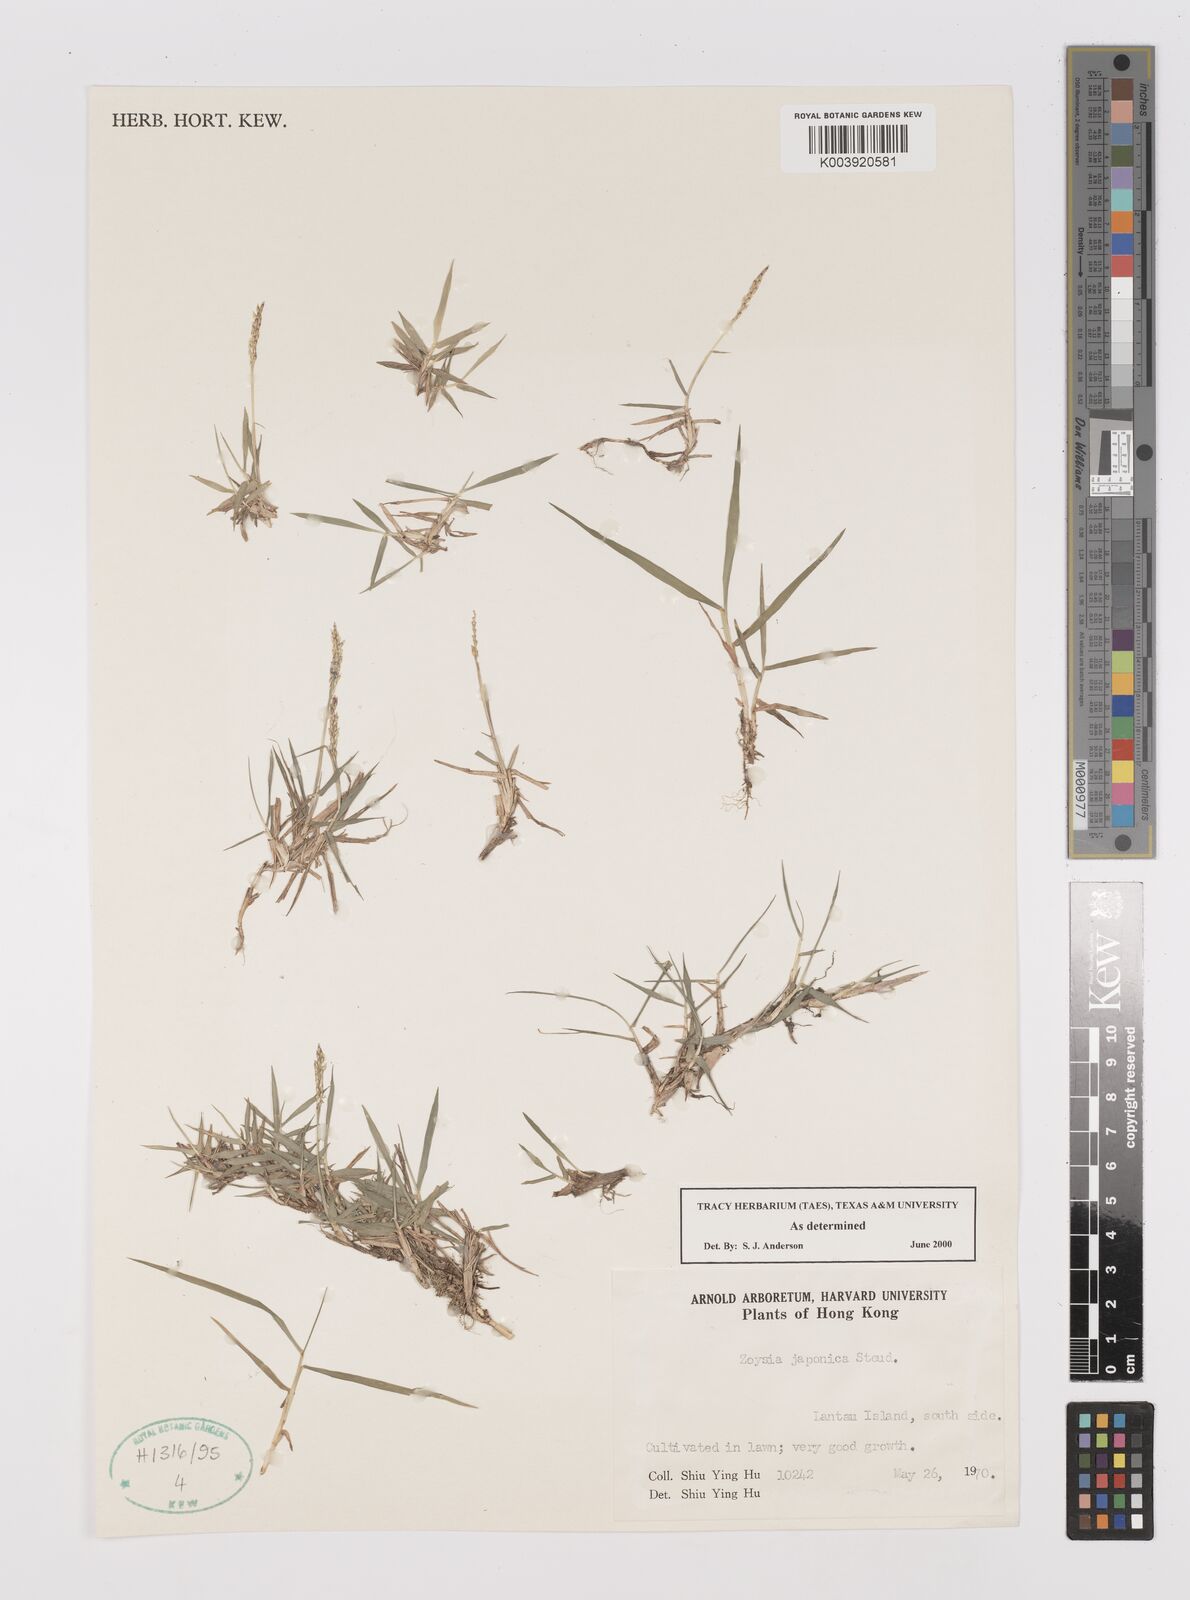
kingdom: Plantae
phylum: Tracheophyta
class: Liliopsida
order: Poales
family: Poaceae
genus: Zoysia
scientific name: Zoysia japonica
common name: Korean lawngrass
